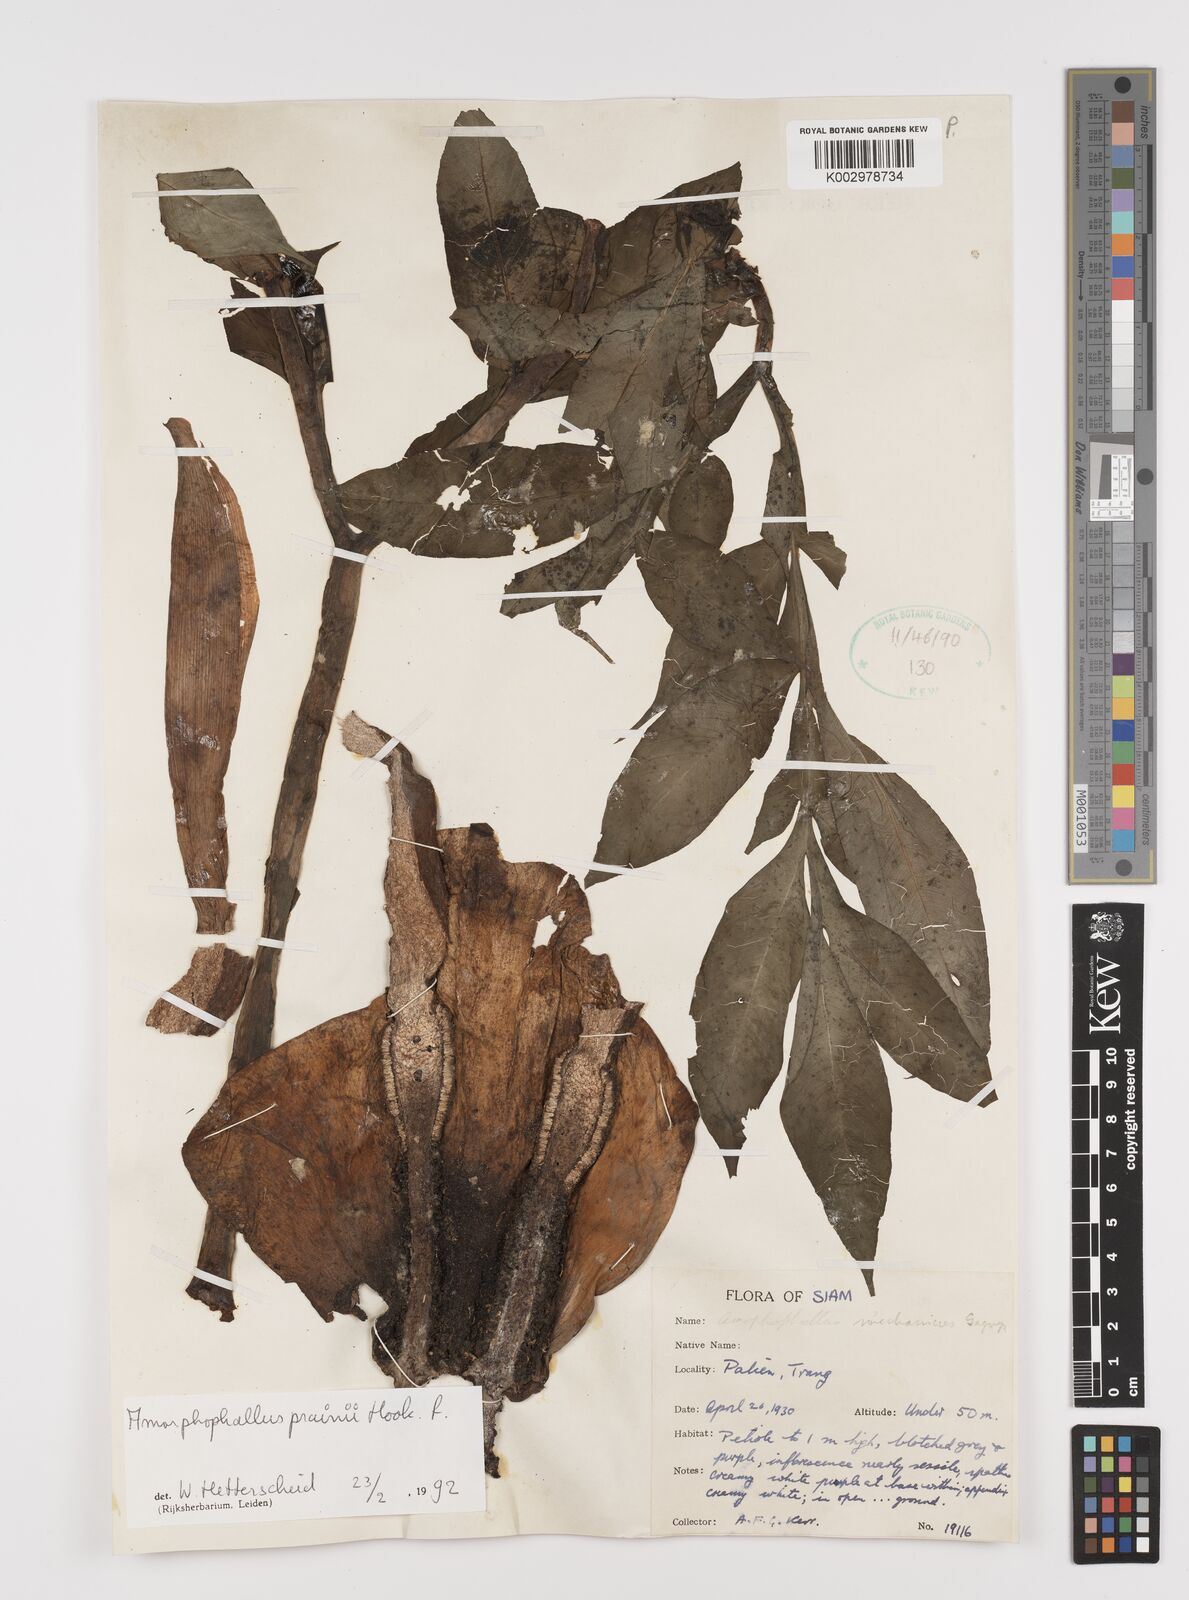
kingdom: Plantae
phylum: Tracheophyta
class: Liliopsida
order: Alismatales
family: Araceae
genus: Amorphophallus
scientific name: Amorphophallus prainii
